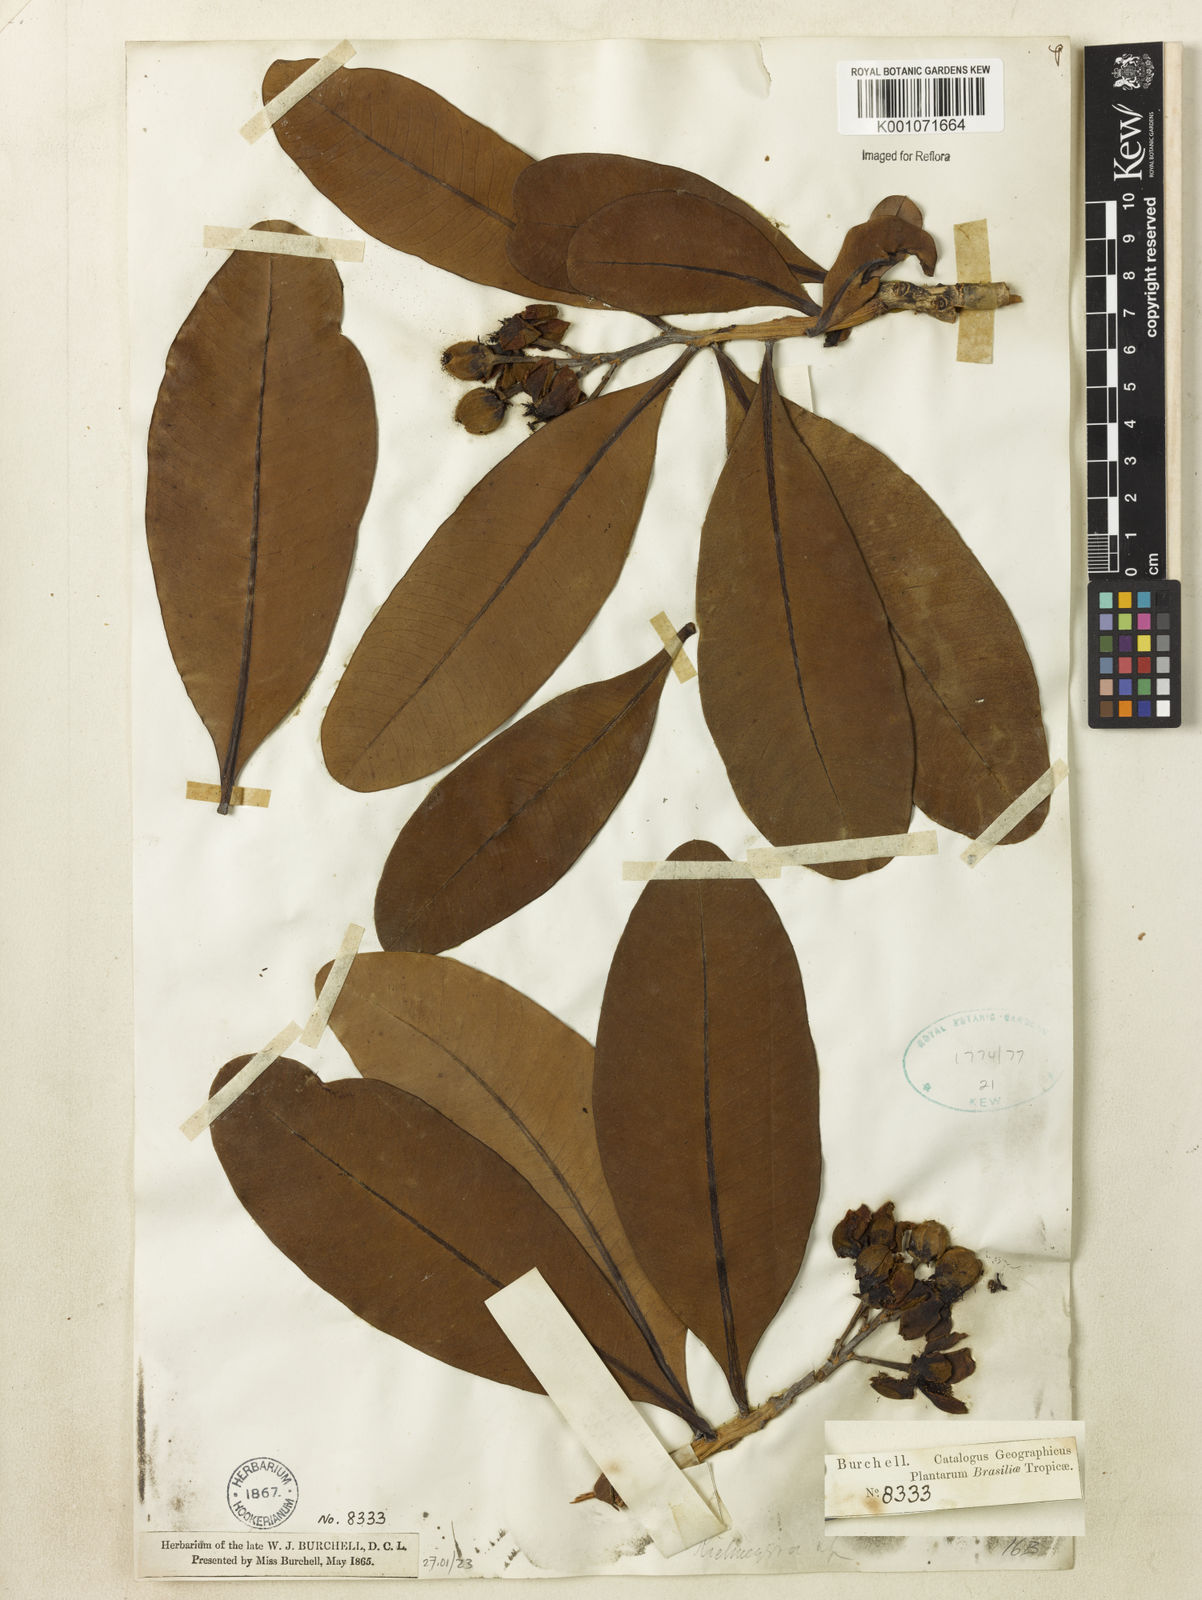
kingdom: Plantae
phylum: Tracheophyta
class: Magnoliopsida
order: Malpighiales
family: Calophyllaceae
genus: Kielmeyera
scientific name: Kielmeyera
